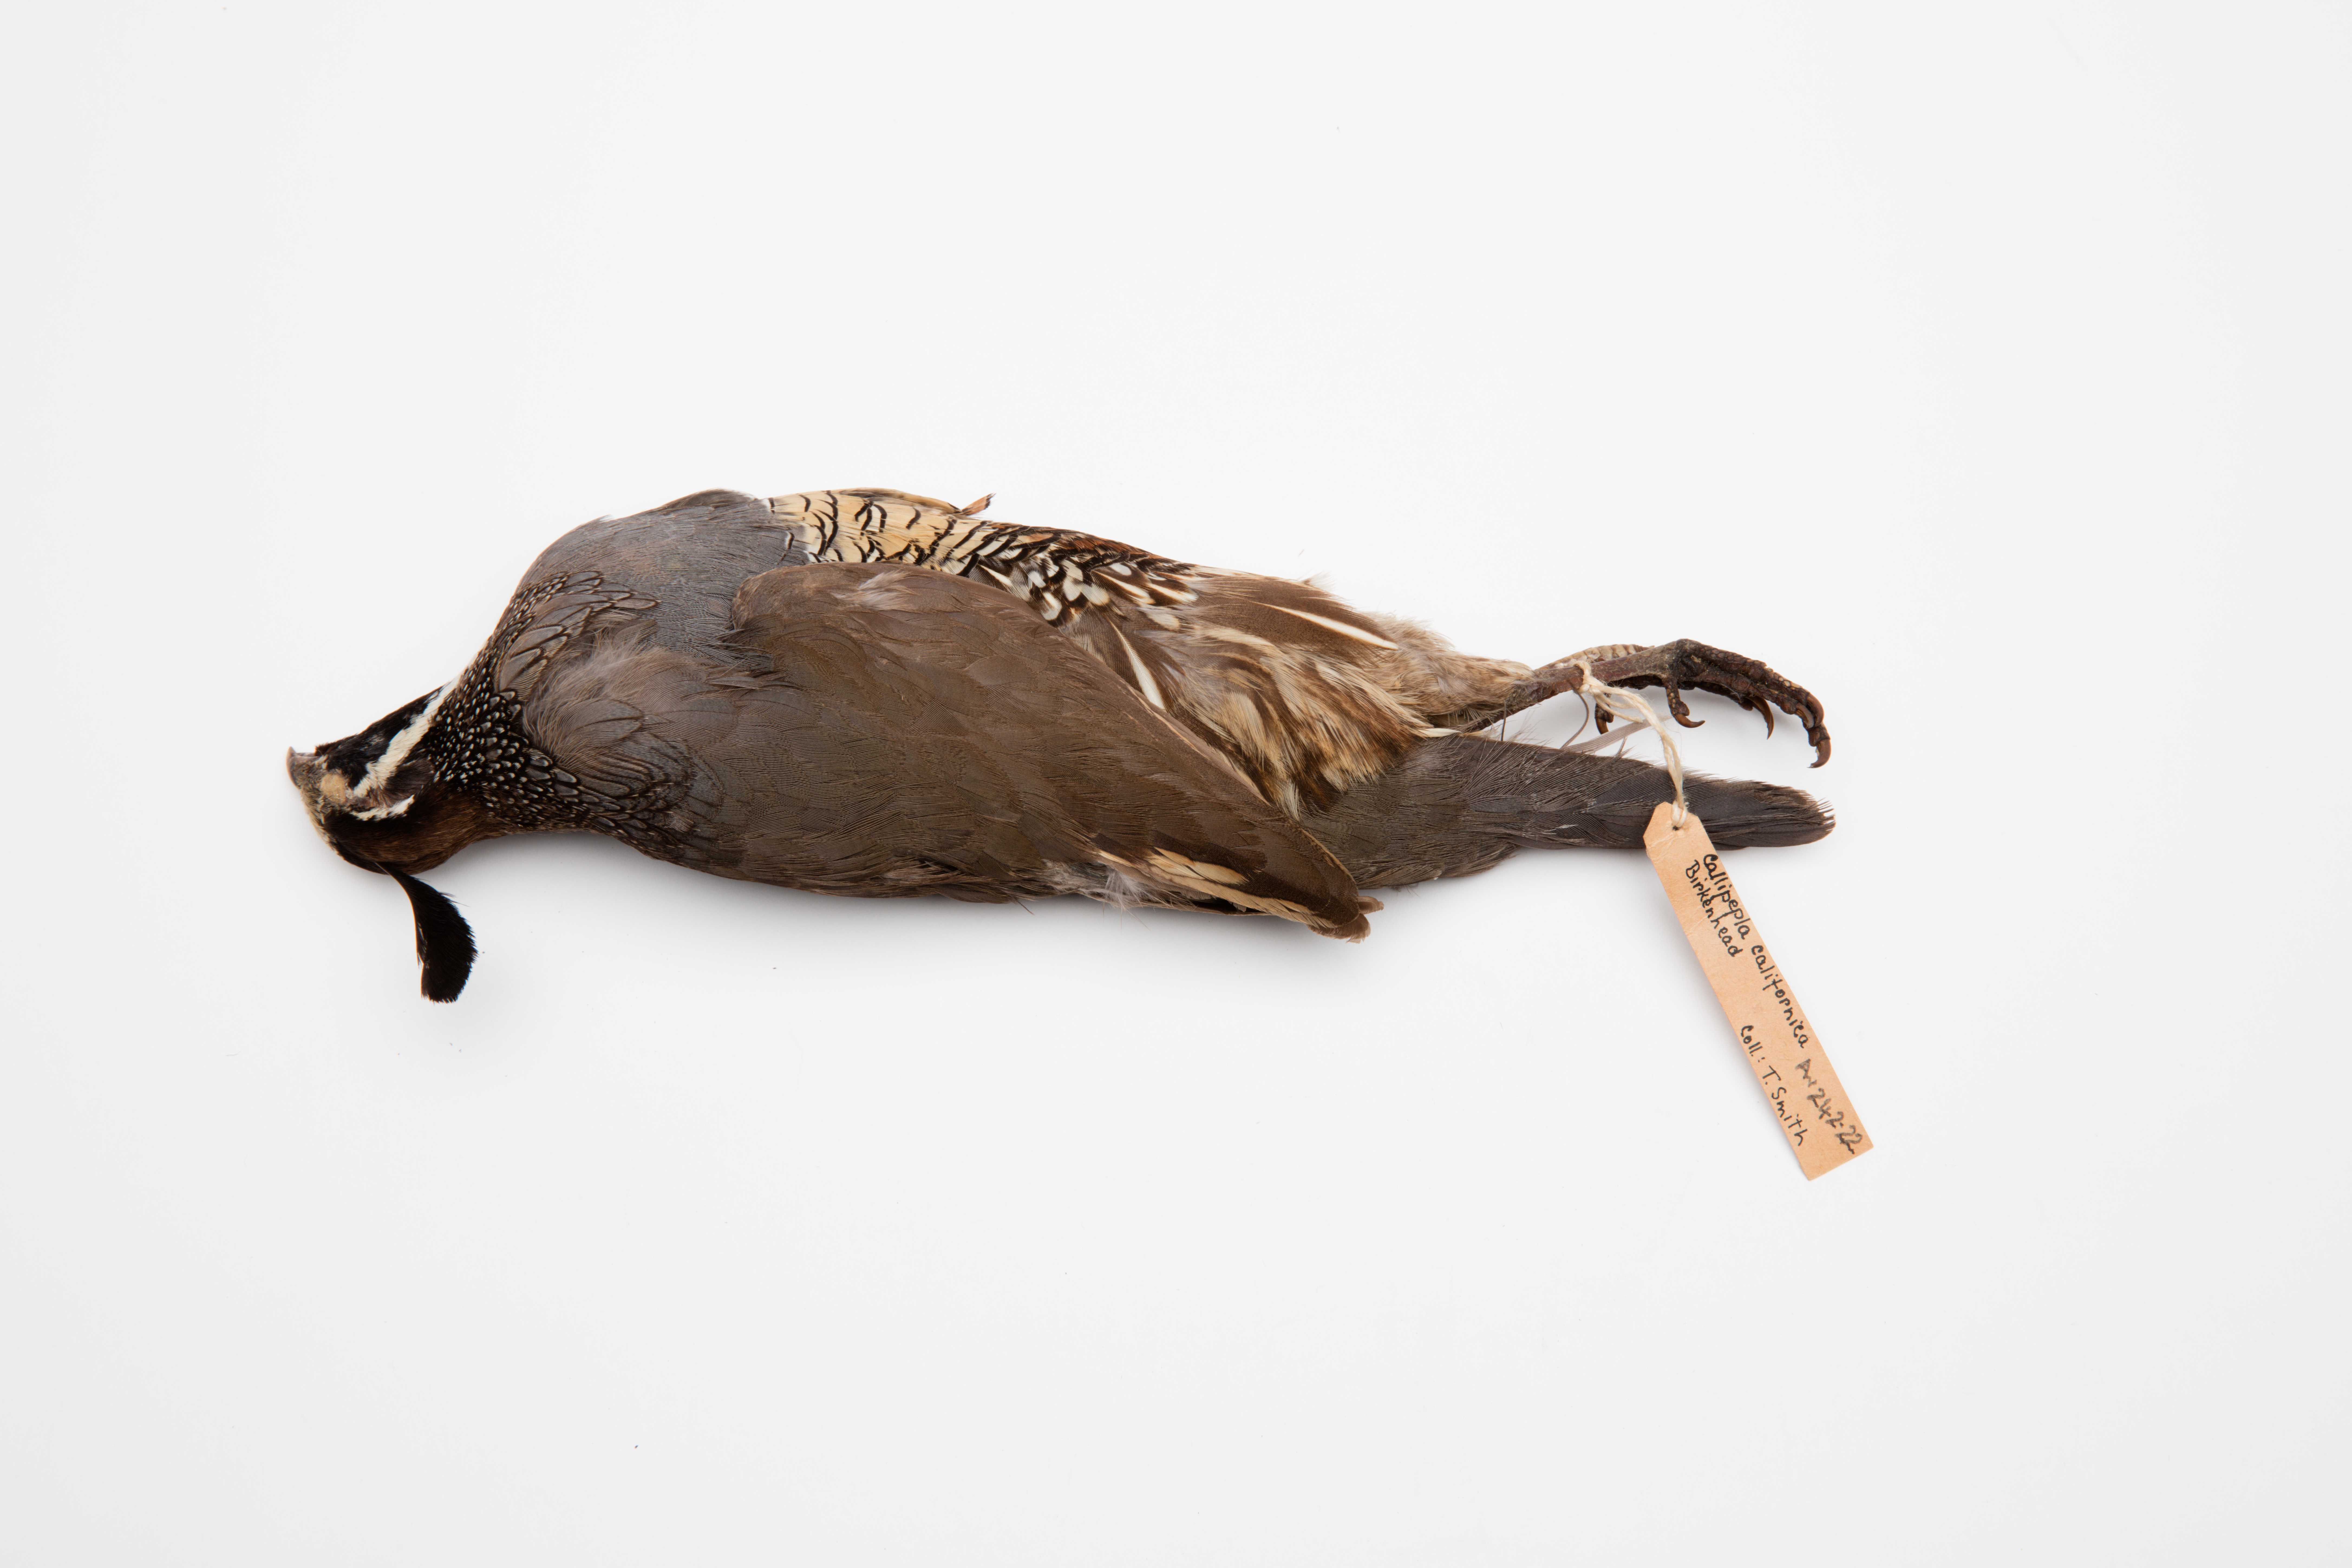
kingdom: Animalia
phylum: Chordata
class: Aves
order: Galliformes
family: Odontophoridae
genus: Callipepla
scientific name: Callipepla californica
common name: California quail
